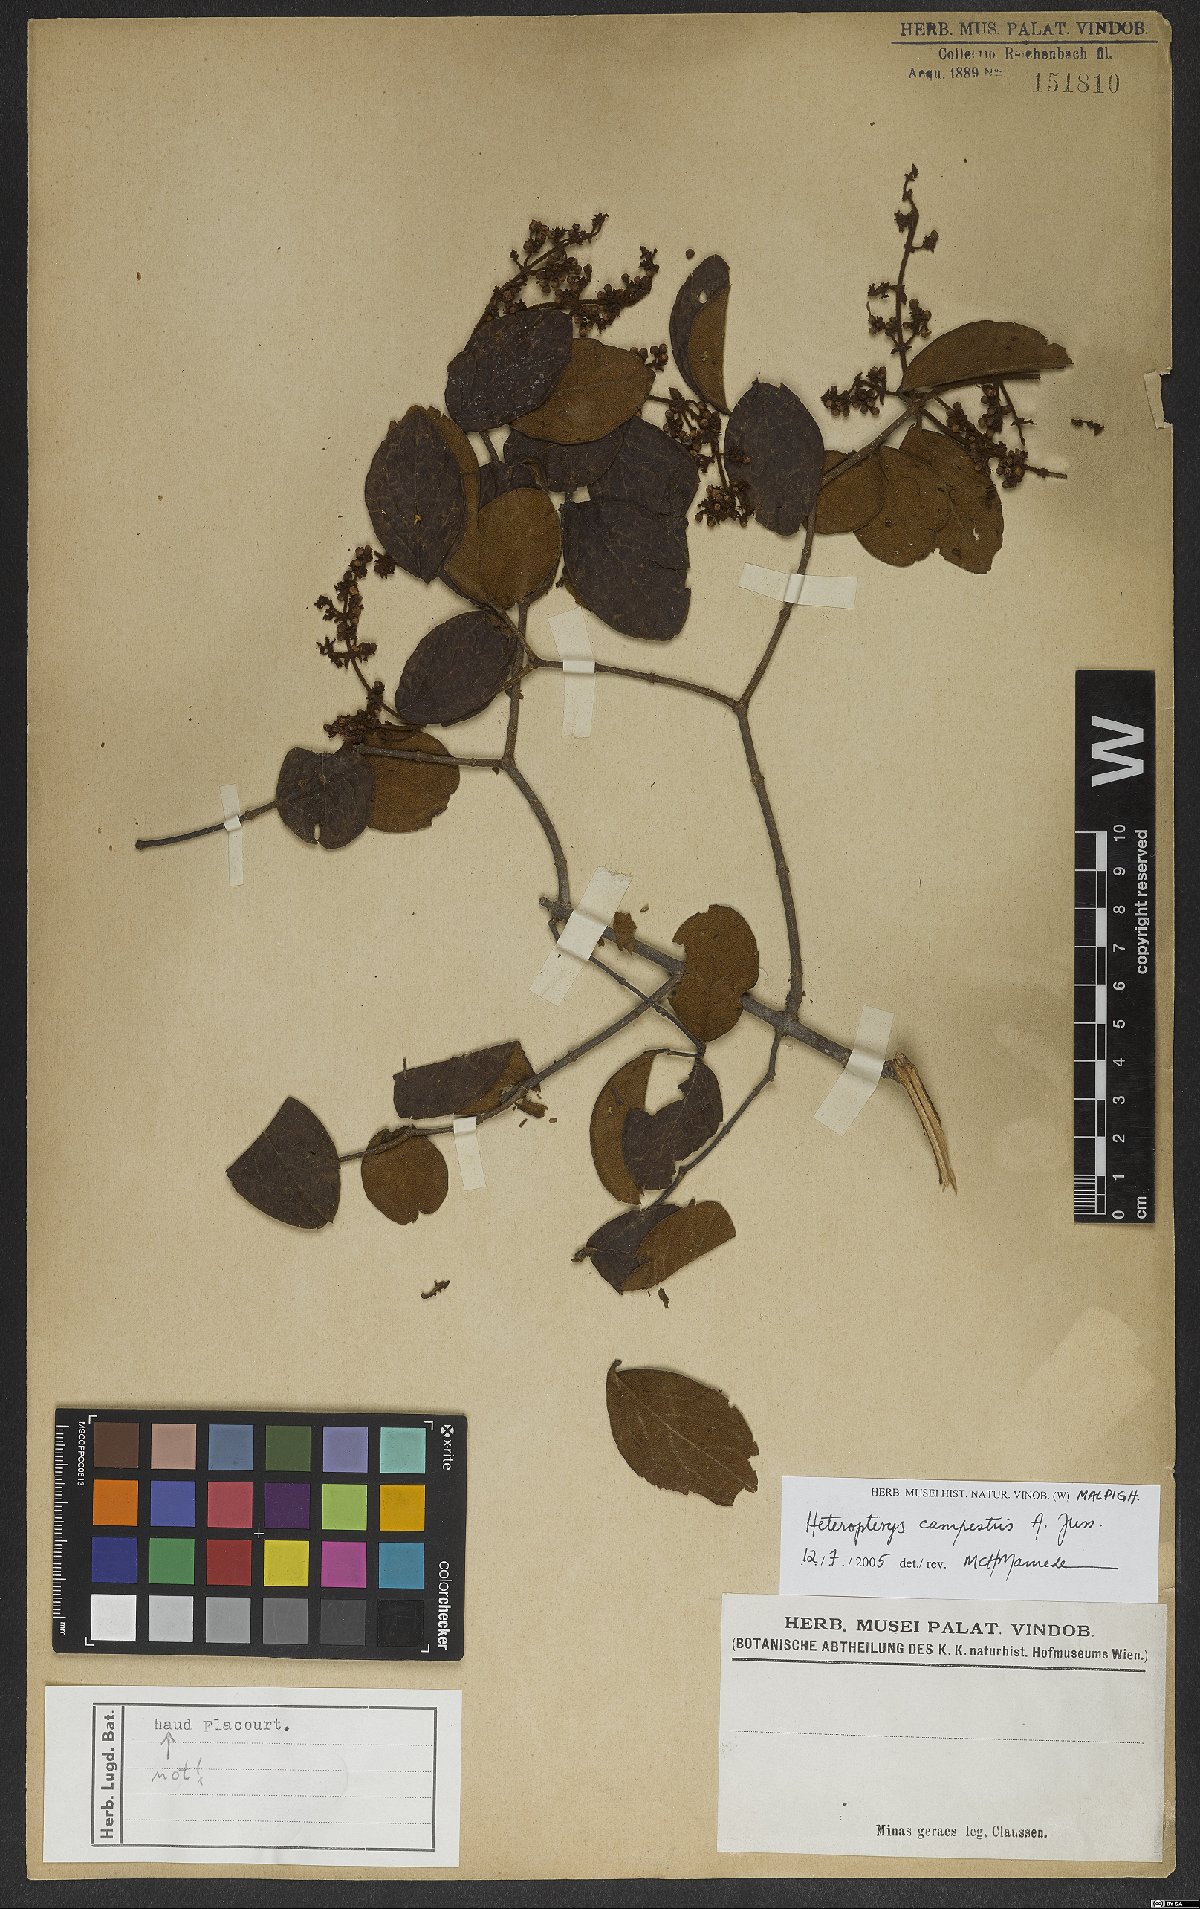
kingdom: Plantae
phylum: Tracheophyta
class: Magnoliopsida
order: Malpighiales
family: Malpighiaceae
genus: Heteropterys
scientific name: Heteropterys campestris
